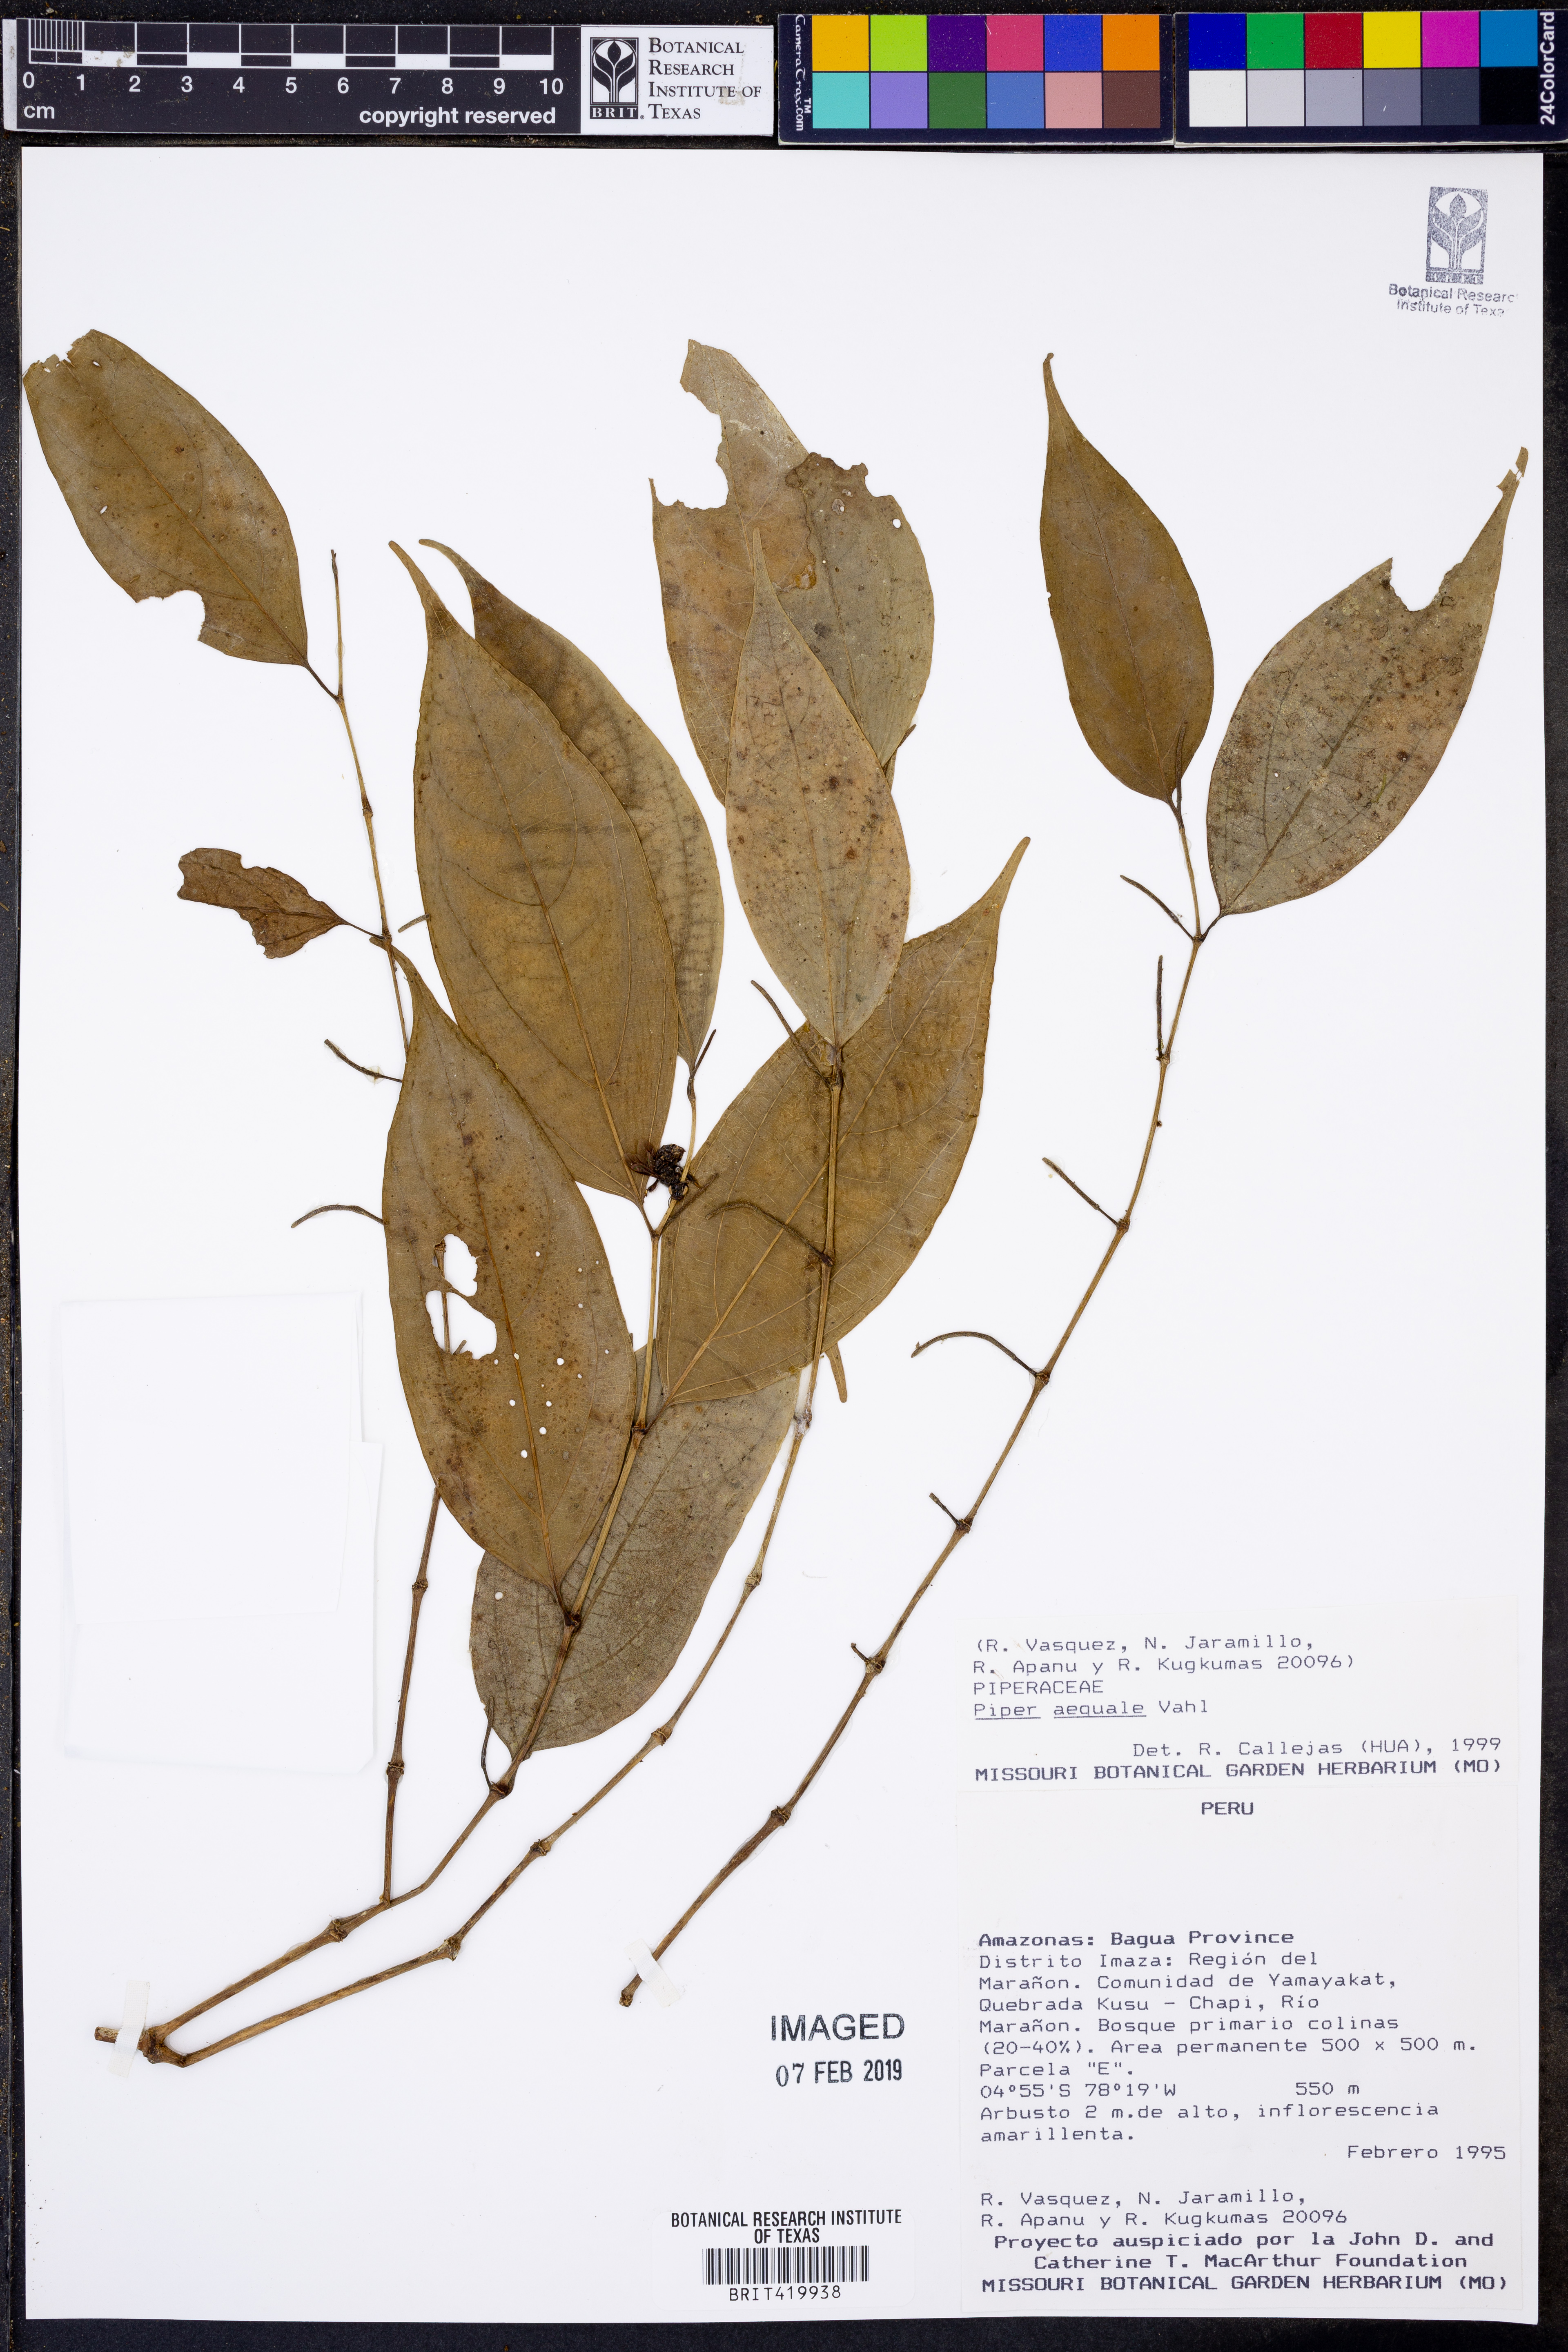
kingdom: Plantae
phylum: Tracheophyta
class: Magnoliopsida
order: Piperales
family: Piperaceae
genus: Piper
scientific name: Piper aequale
